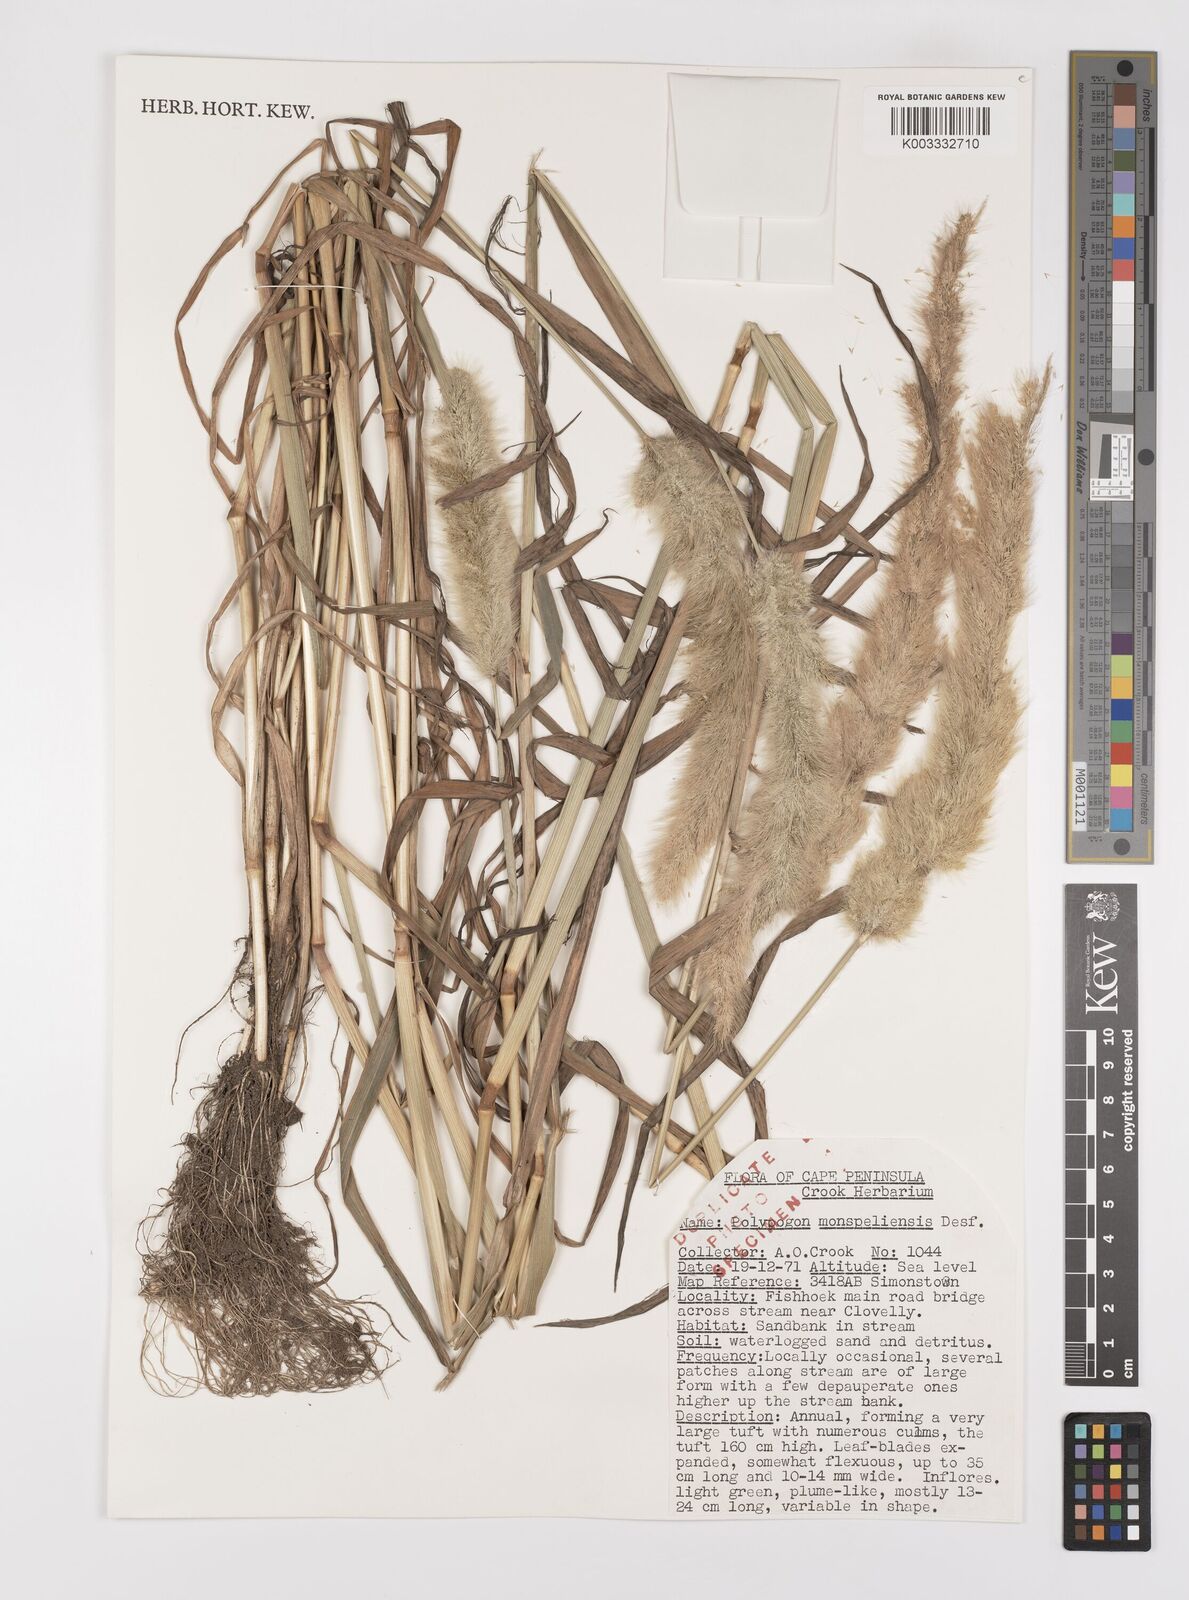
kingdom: Plantae
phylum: Tracheophyta
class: Liliopsida
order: Poales
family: Poaceae
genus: Polypogon
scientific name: Polypogon monspeliensis
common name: Annual rabbitsfoot grass
